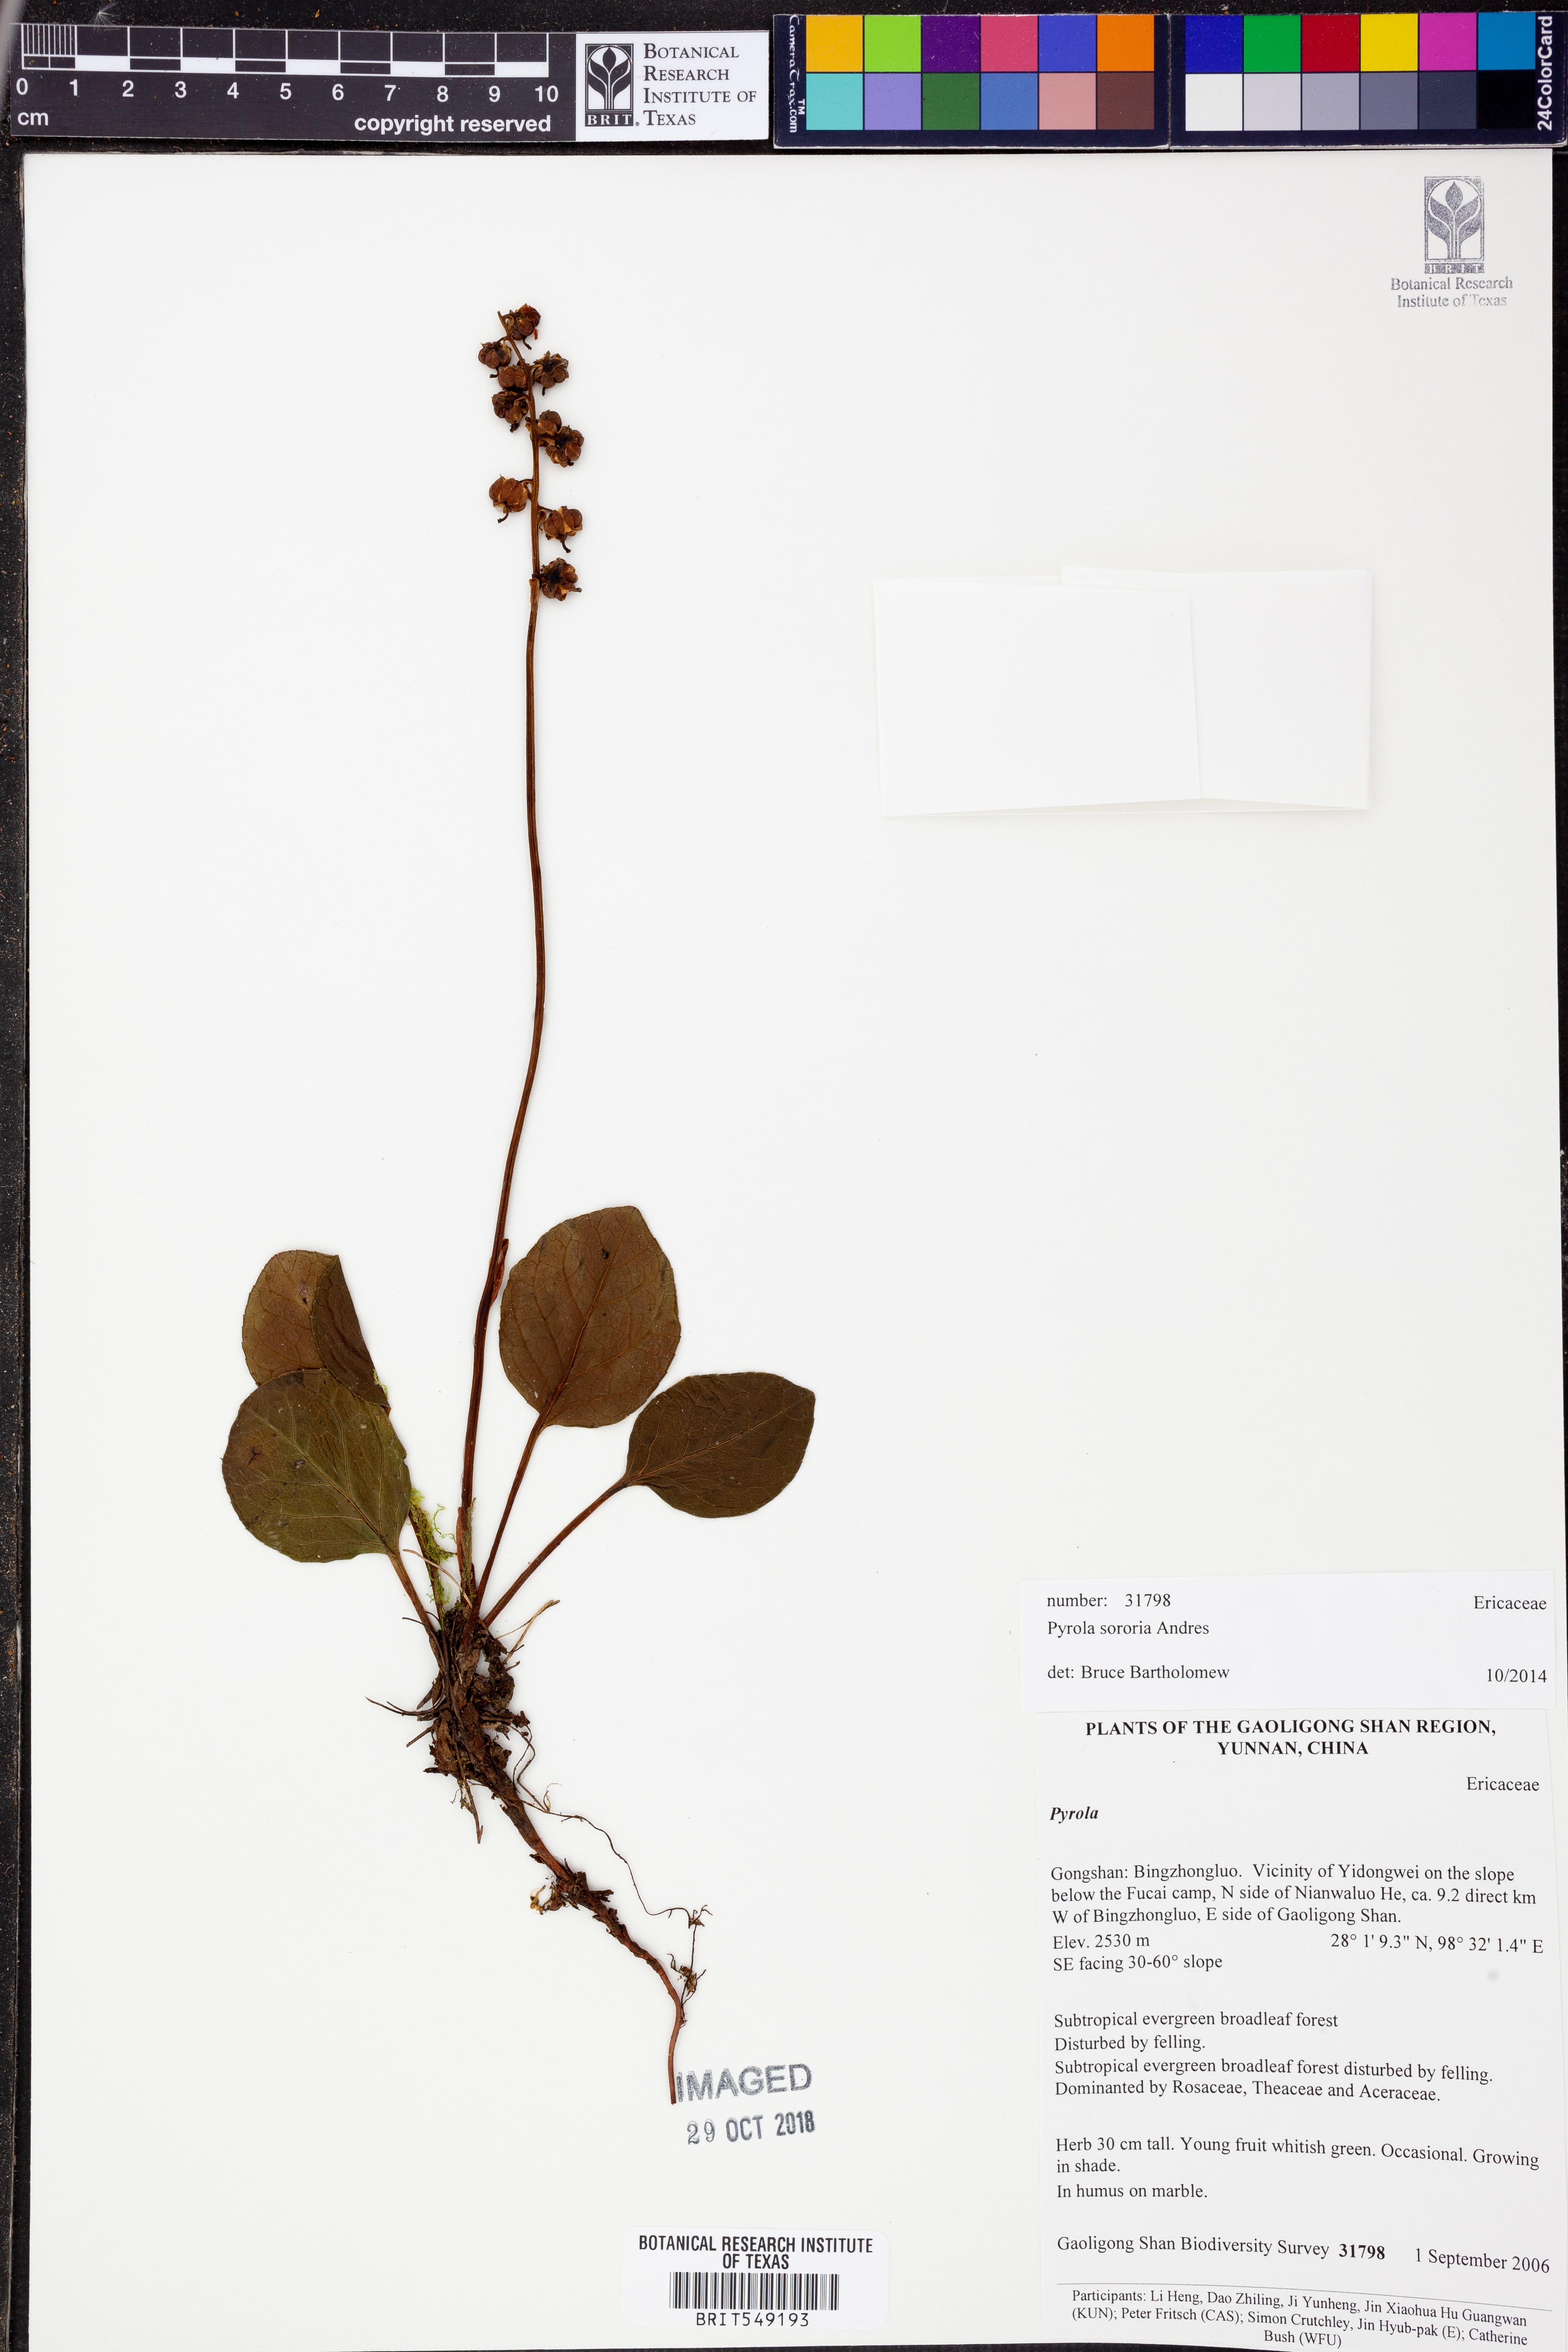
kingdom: Plantae
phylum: Tracheophyta
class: Magnoliopsida
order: Ericales
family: Ericaceae
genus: Pyrola
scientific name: Pyrola sororia
